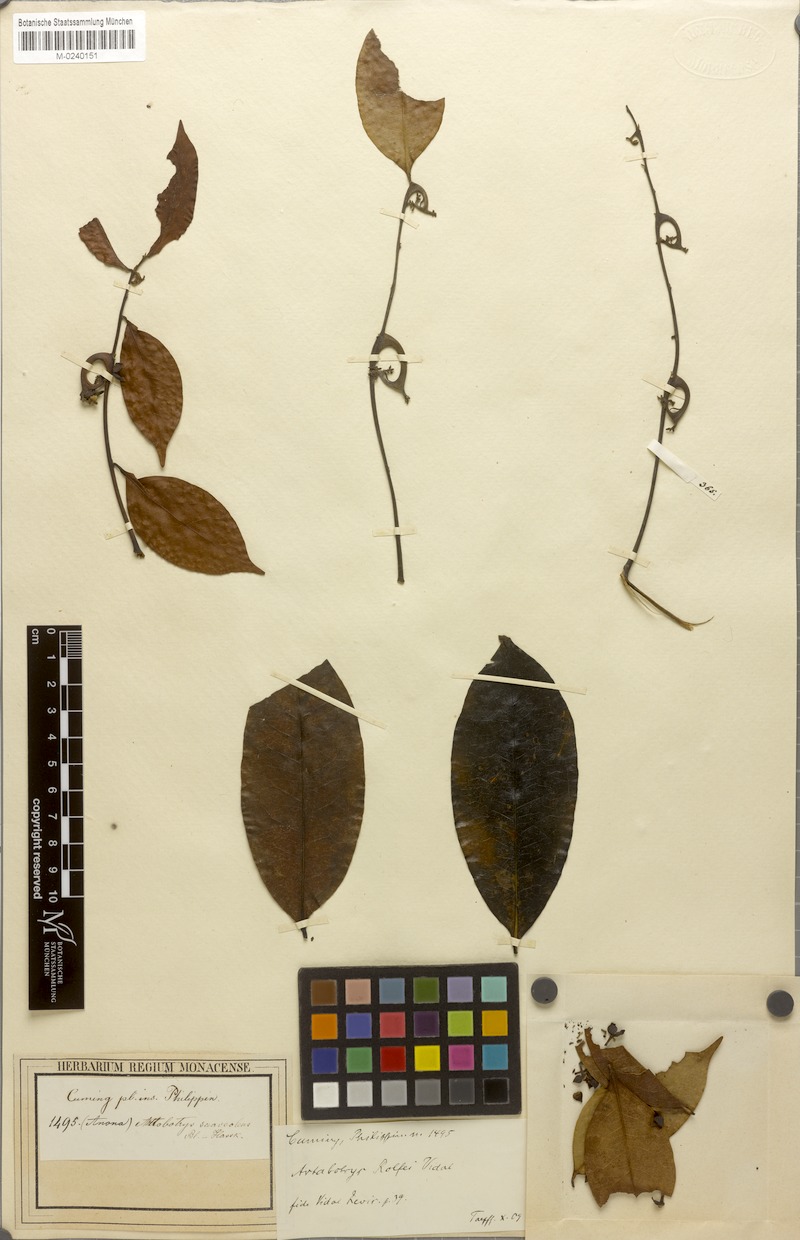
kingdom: Plantae
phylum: Tracheophyta
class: Magnoliopsida
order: Magnoliales
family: Annonaceae
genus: Artabotrys
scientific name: Artabotrys suaveolens
